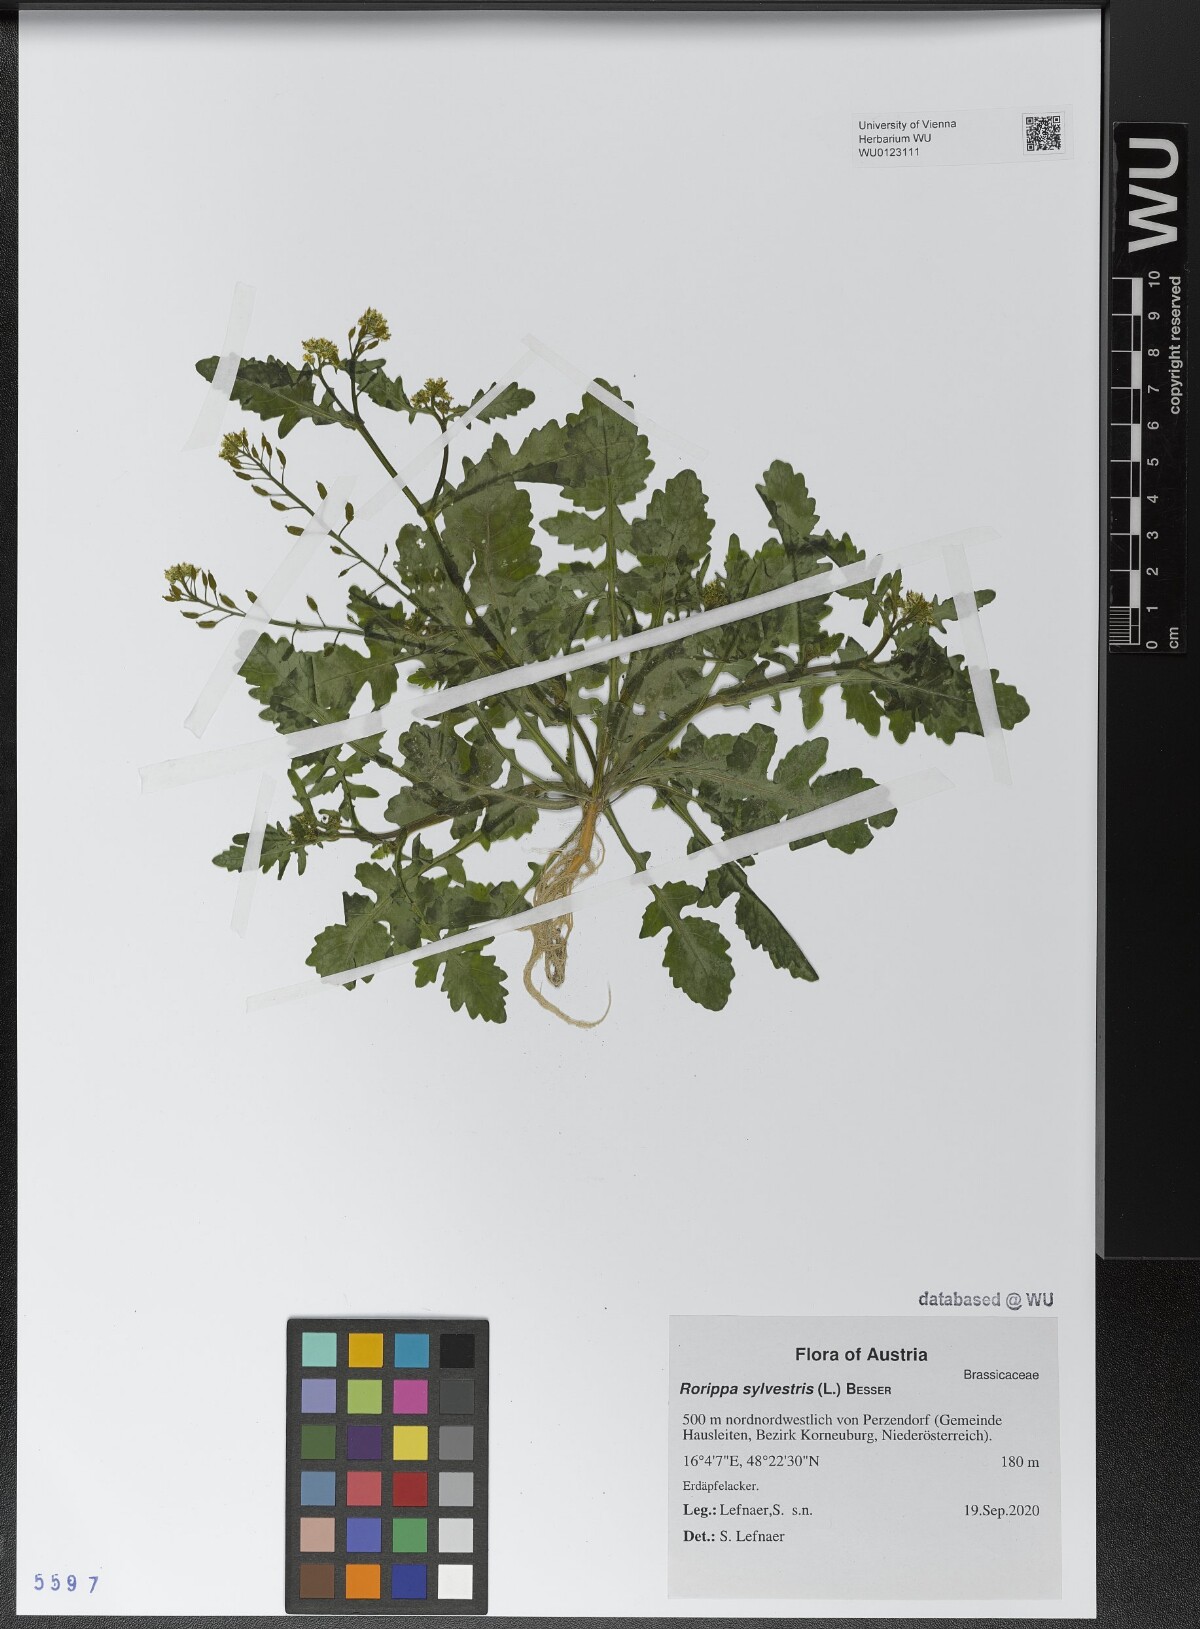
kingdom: Plantae
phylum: Tracheophyta
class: Magnoliopsida
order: Brassicales
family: Brassicaceae
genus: Rorippa
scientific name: Rorippa palustris
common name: Marsh yellow-cress
